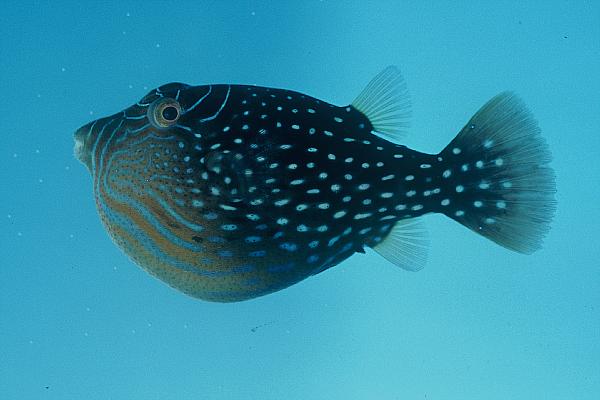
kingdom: Animalia
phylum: Chordata
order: Tetraodontiformes
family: Tetraodontidae
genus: Canthigaster
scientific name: Canthigaster amboinensis
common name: Ambon pufferfish
